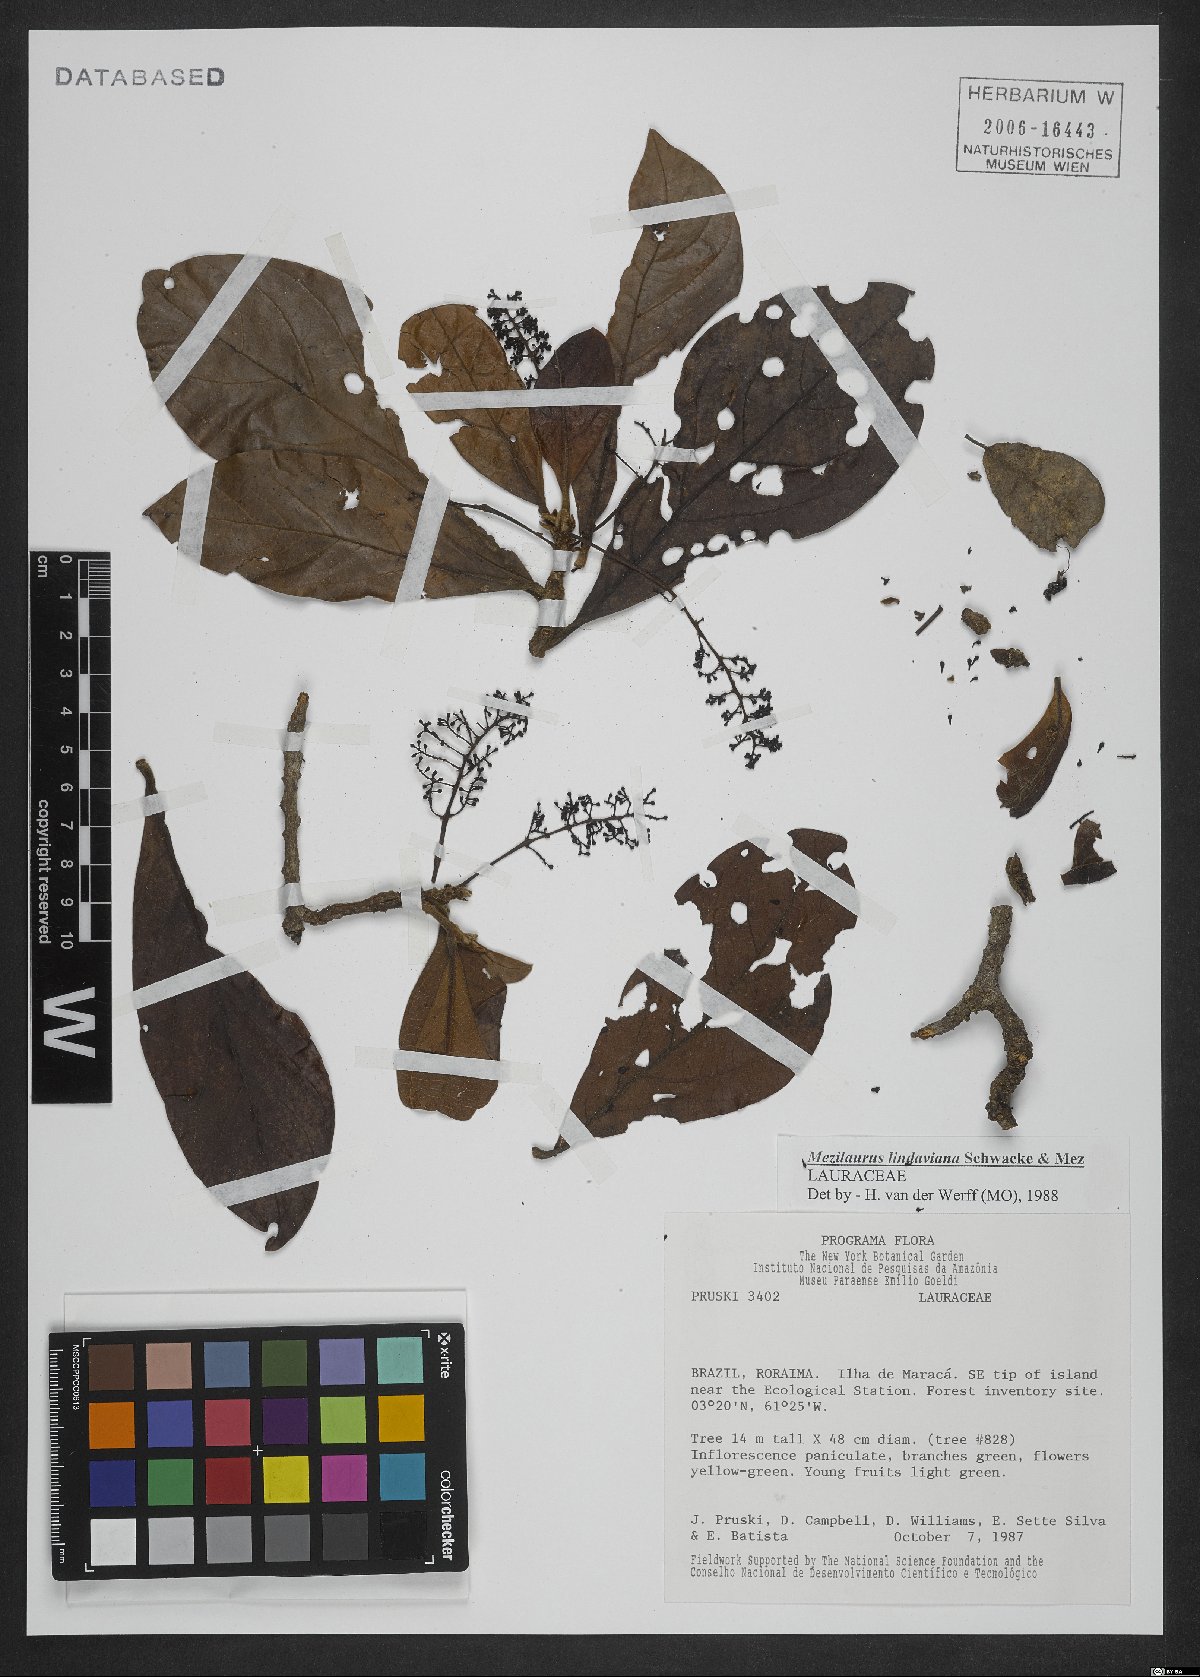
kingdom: Plantae
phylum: Tracheophyta
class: Magnoliopsida
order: Laurales
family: Lauraceae
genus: Mezilaurus
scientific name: Mezilaurus lindaviana
